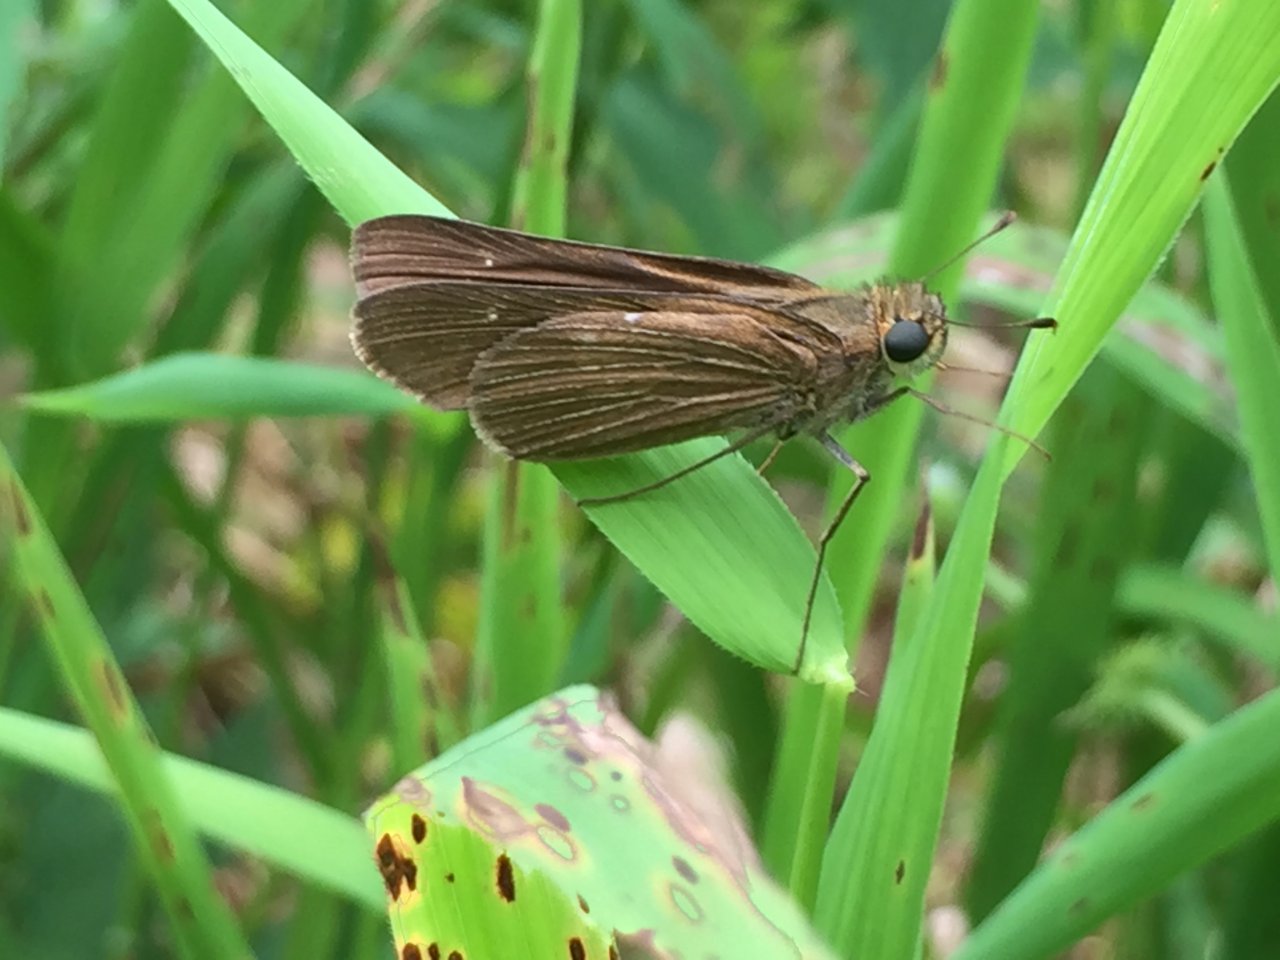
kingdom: Animalia
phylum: Arthropoda
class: Insecta
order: Lepidoptera
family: Hesperiidae
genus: Panoquina
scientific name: Panoquina ocola
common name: Ocola Skipper
